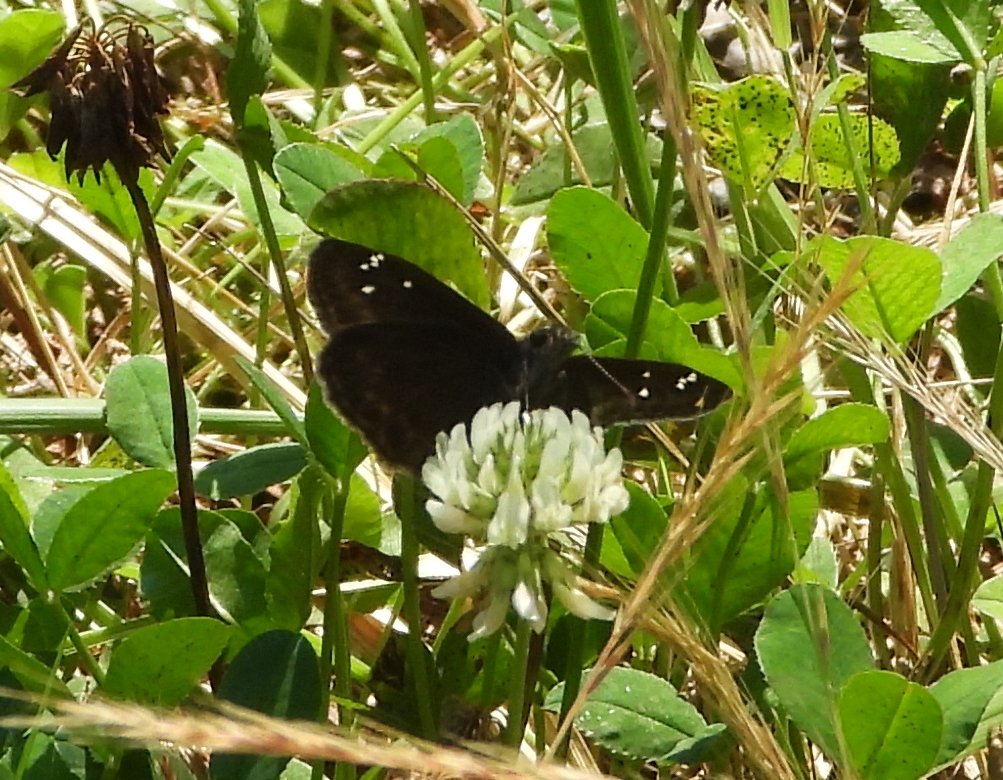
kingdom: Animalia
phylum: Arthropoda
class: Insecta
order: Lepidoptera
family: Hesperiidae
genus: Gesta
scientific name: Gesta
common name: Horace's Duskywing
